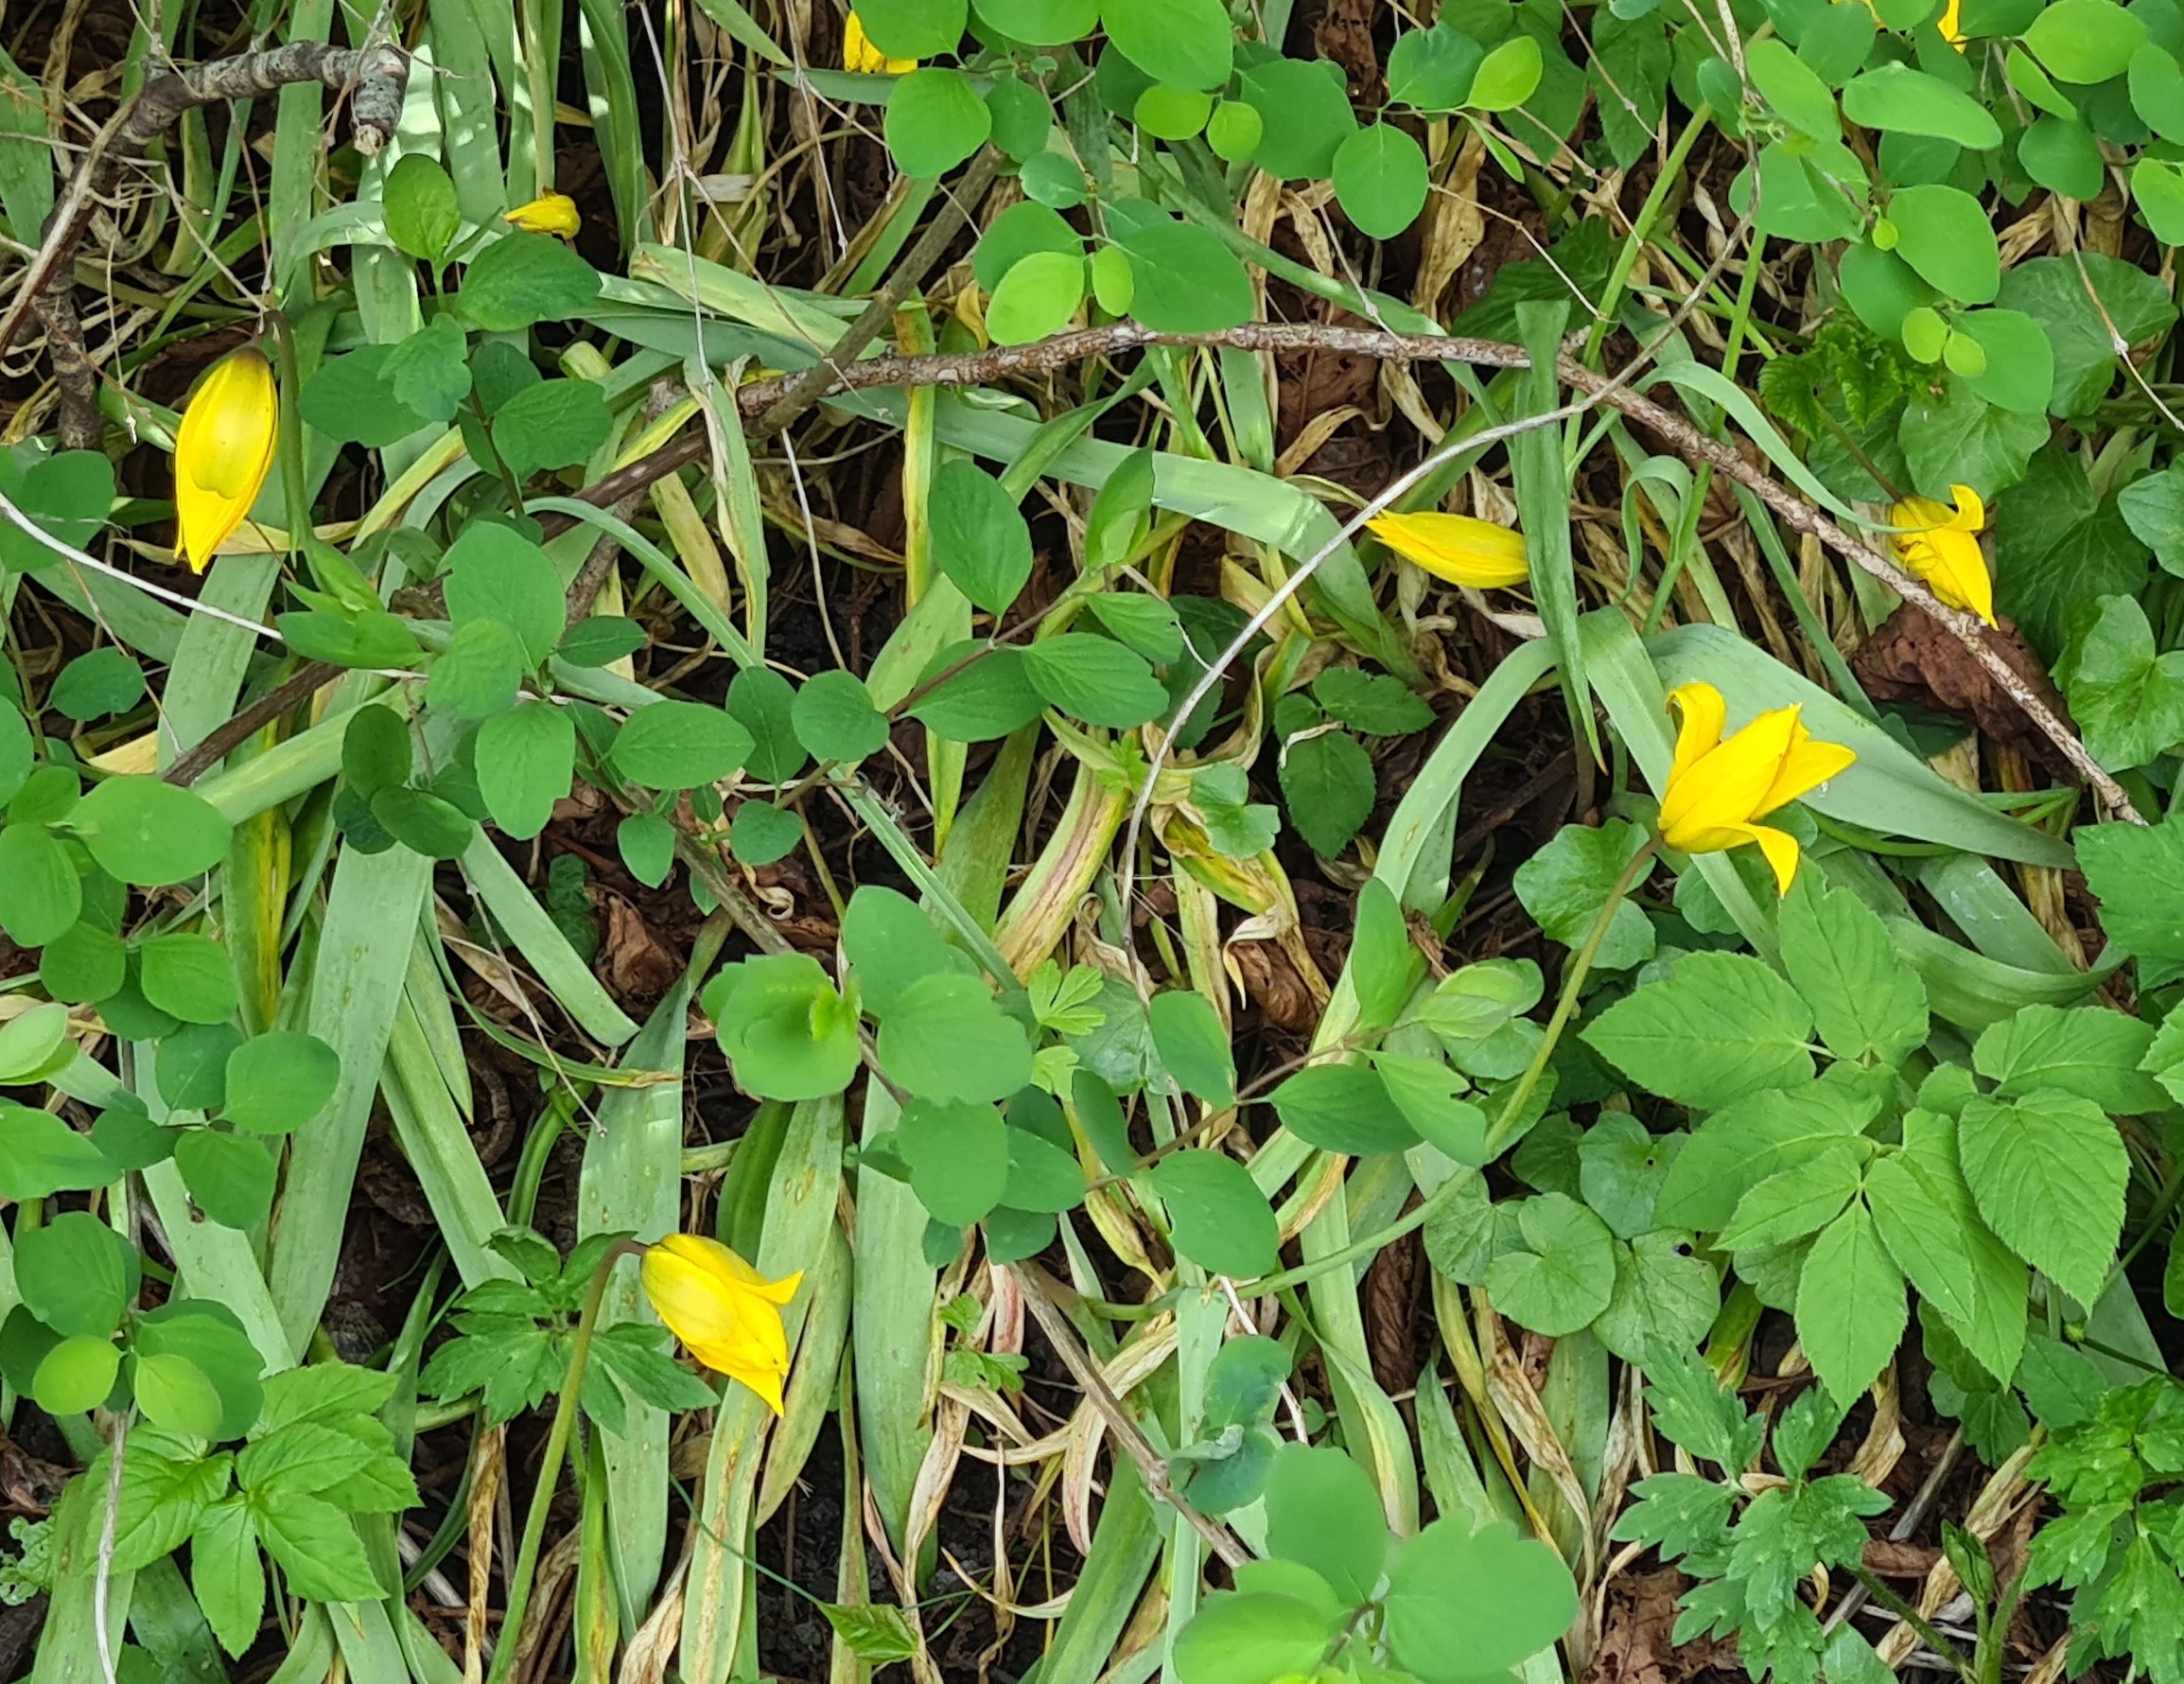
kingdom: Plantae
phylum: Tracheophyta
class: Liliopsida
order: Liliales
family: Liliaceae
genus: Tulipa
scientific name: Tulipa sylvestris
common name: Vild tulipan
